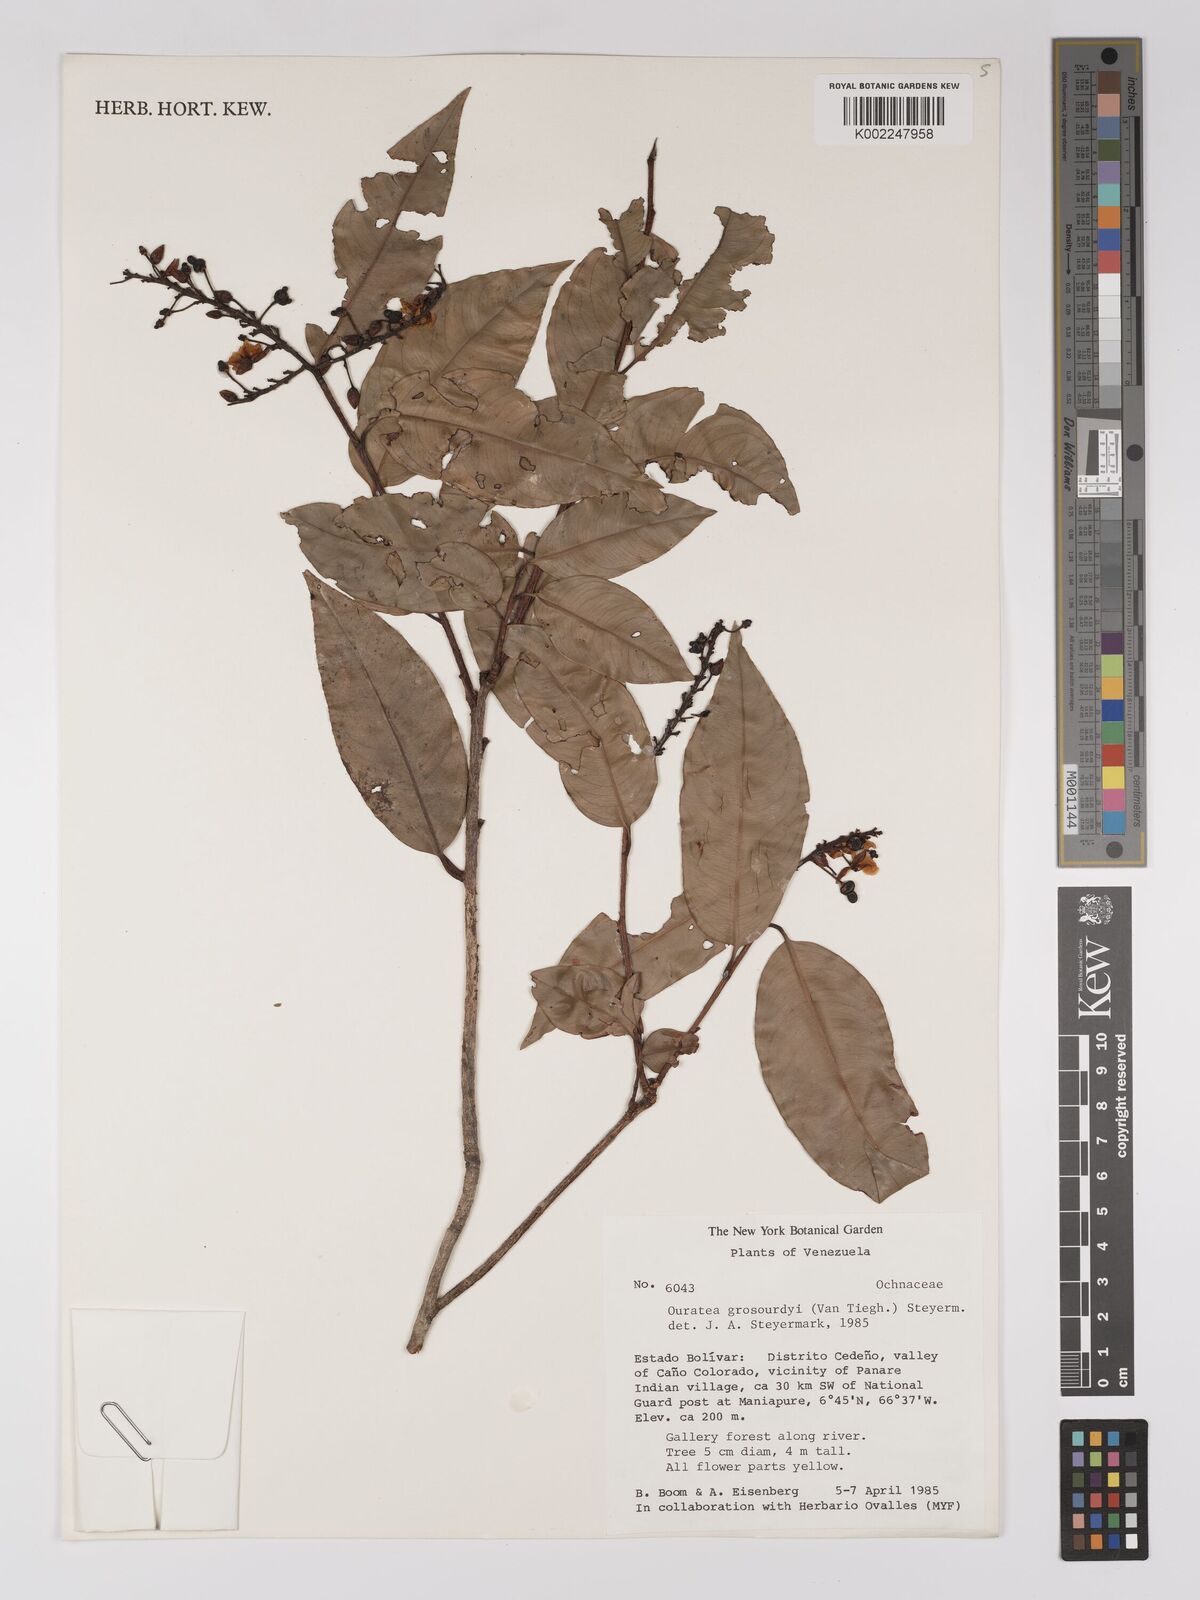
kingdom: Plantae
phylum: Tracheophyta
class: Magnoliopsida
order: Malpighiales
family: Ochnaceae
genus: Ouratea
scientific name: Ouratea grosourdyi
